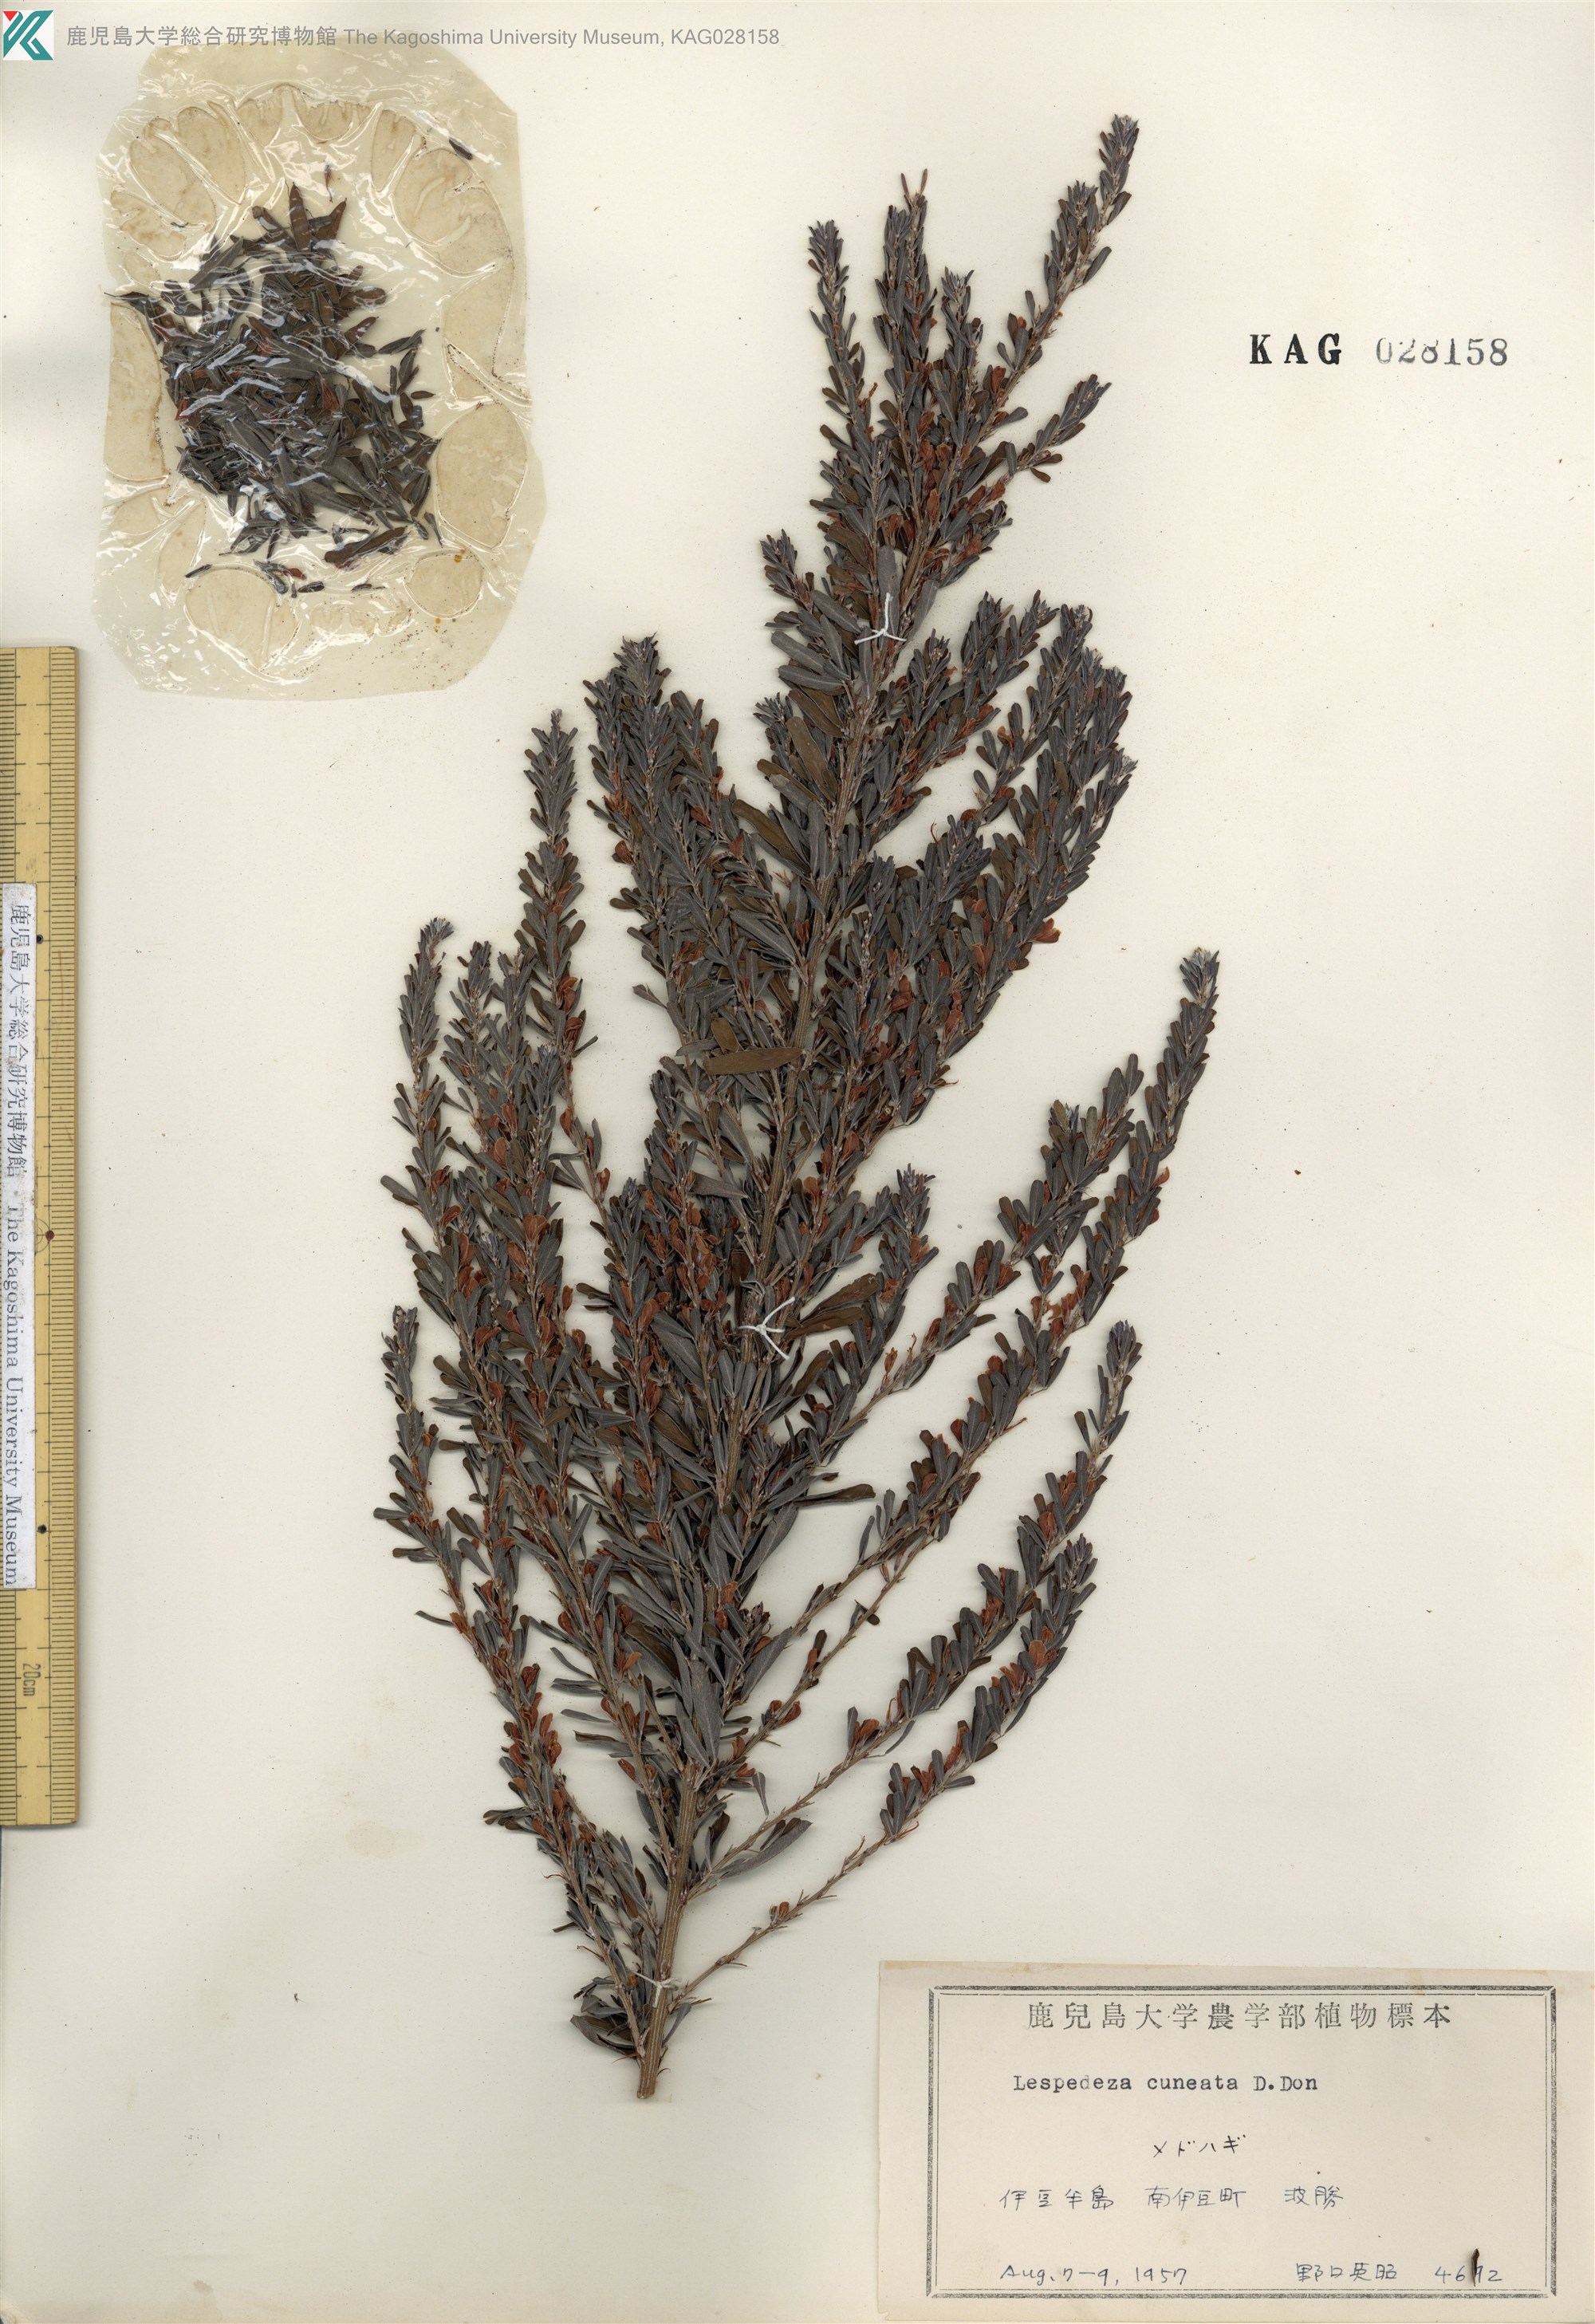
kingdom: Plantae
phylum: Tracheophyta
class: Magnoliopsida
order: Fabales
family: Fabaceae
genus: Lespedeza
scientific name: Lespedeza cuneata
